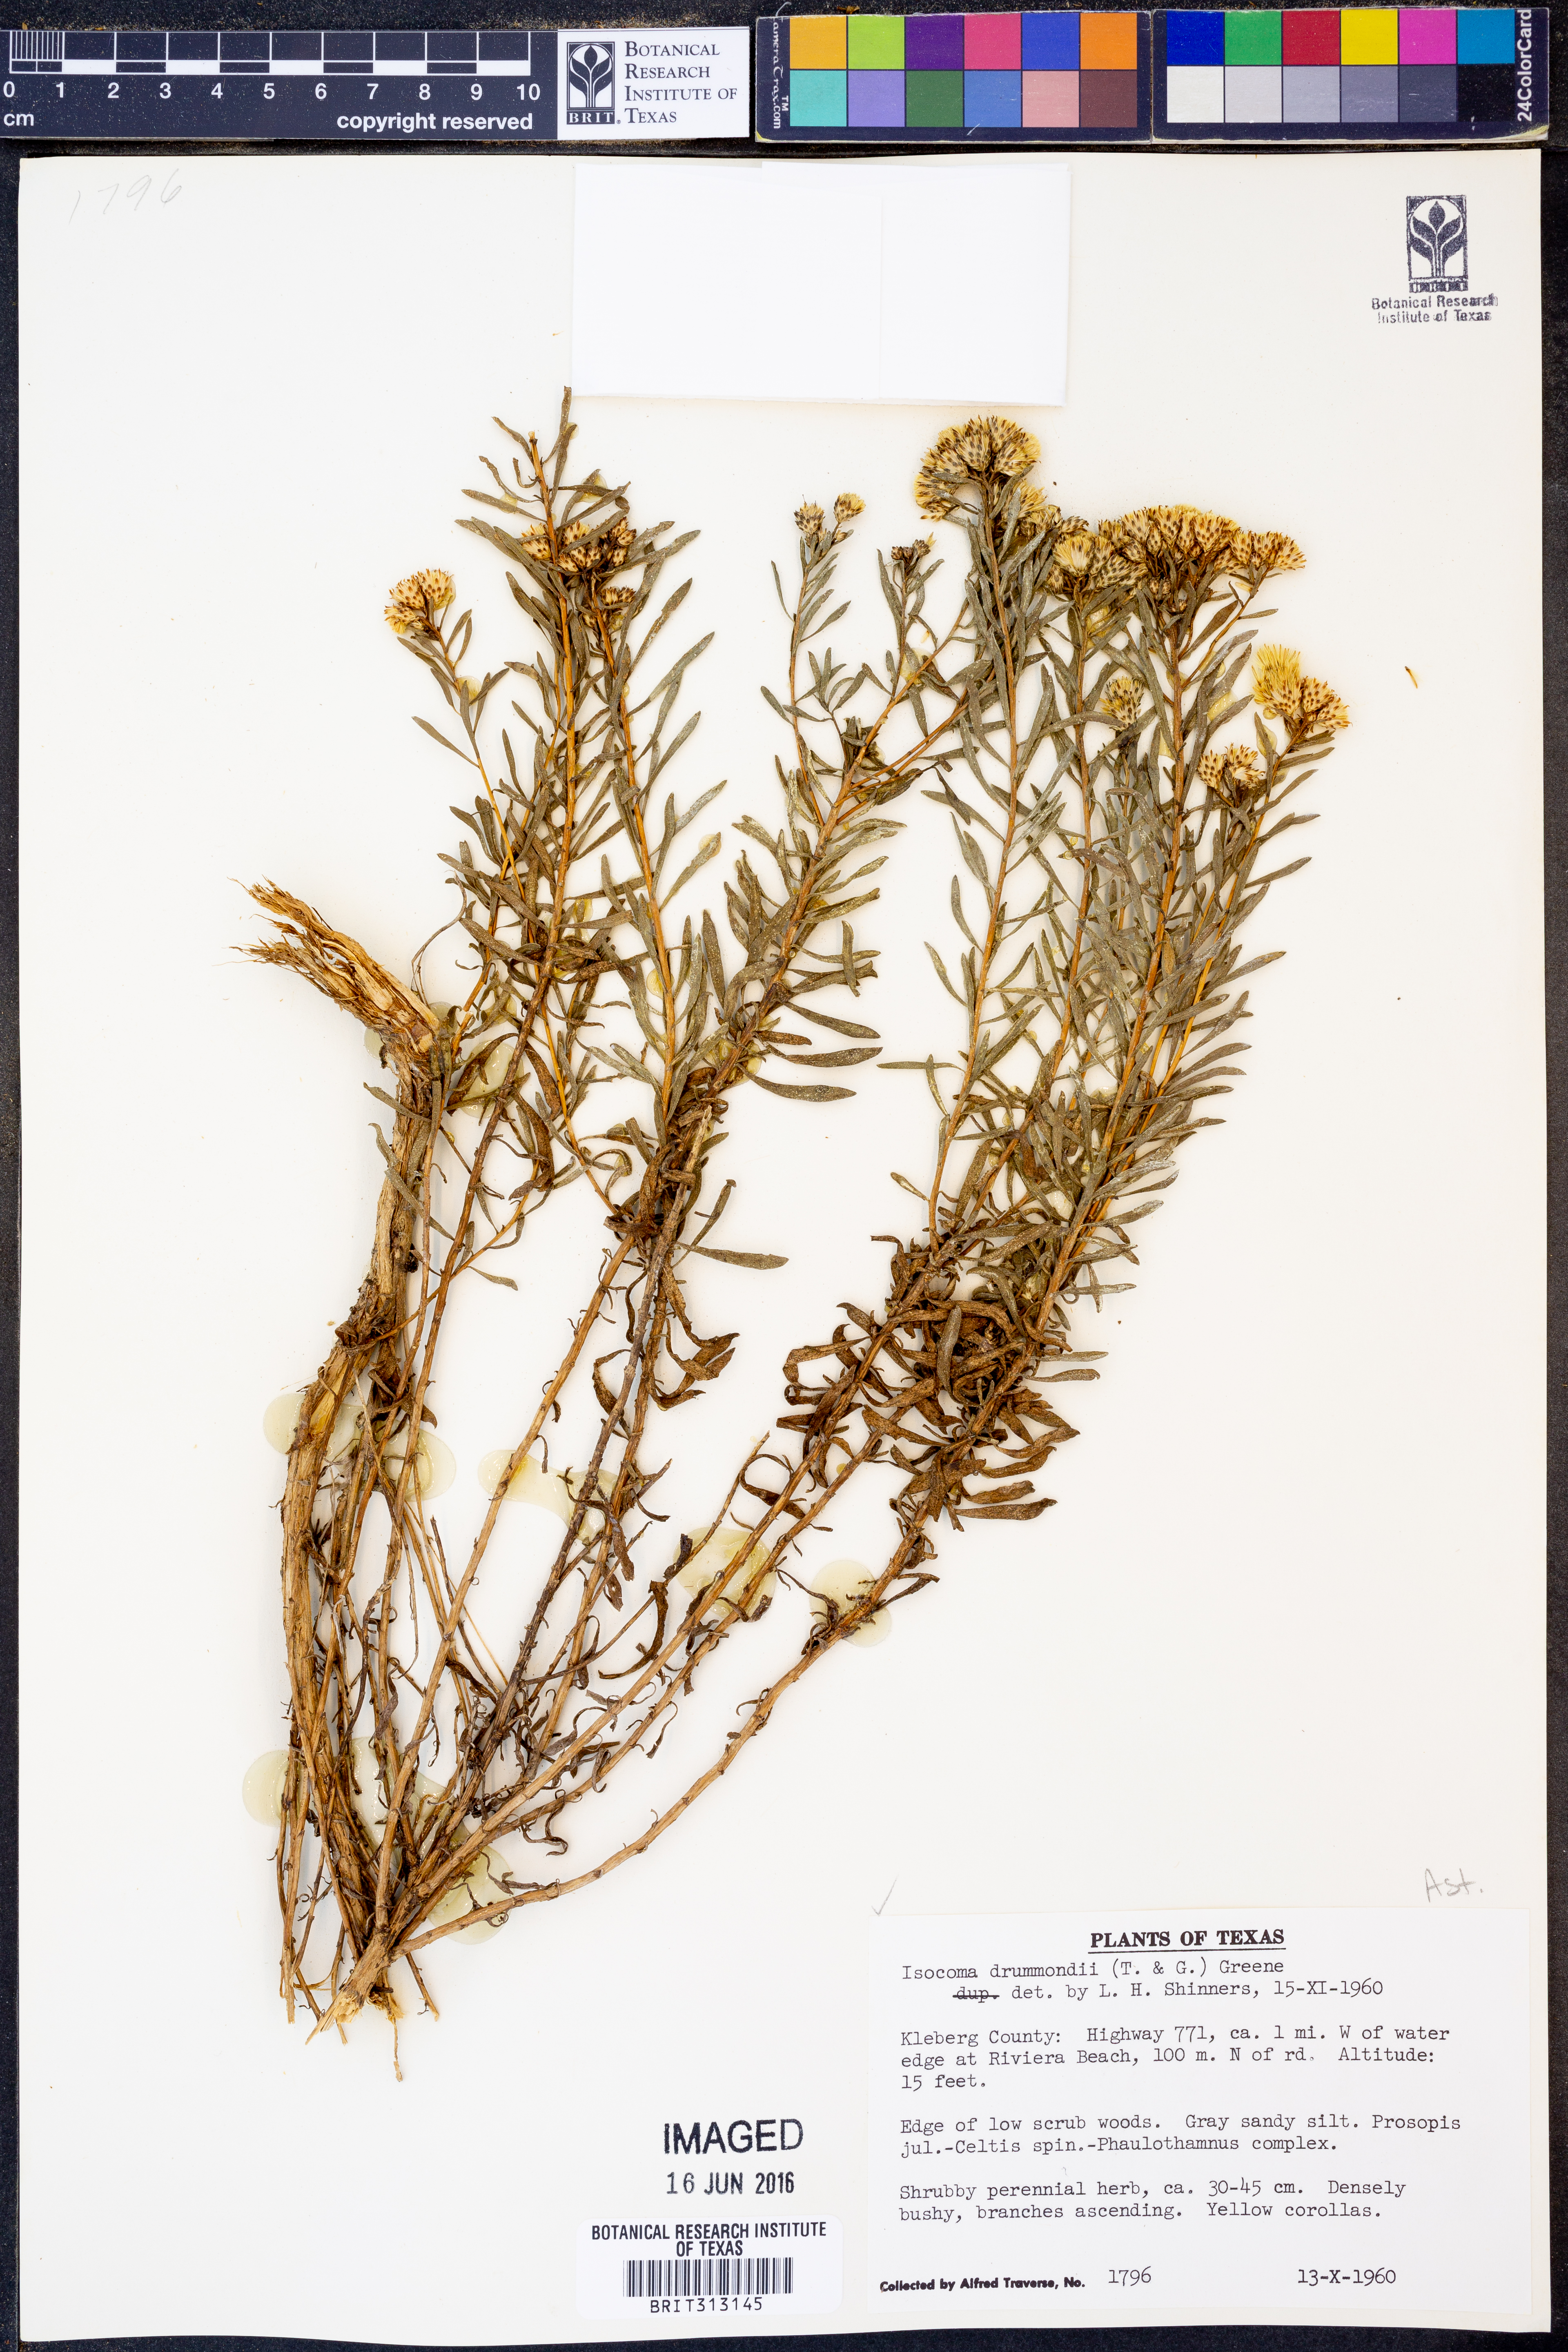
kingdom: Plantae
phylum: Tracheophyta
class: Magnoliopsida
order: Asterales
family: Asteraceae
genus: Isocoma
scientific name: Isocoma drummondii
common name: Drummond's jimmyweed
